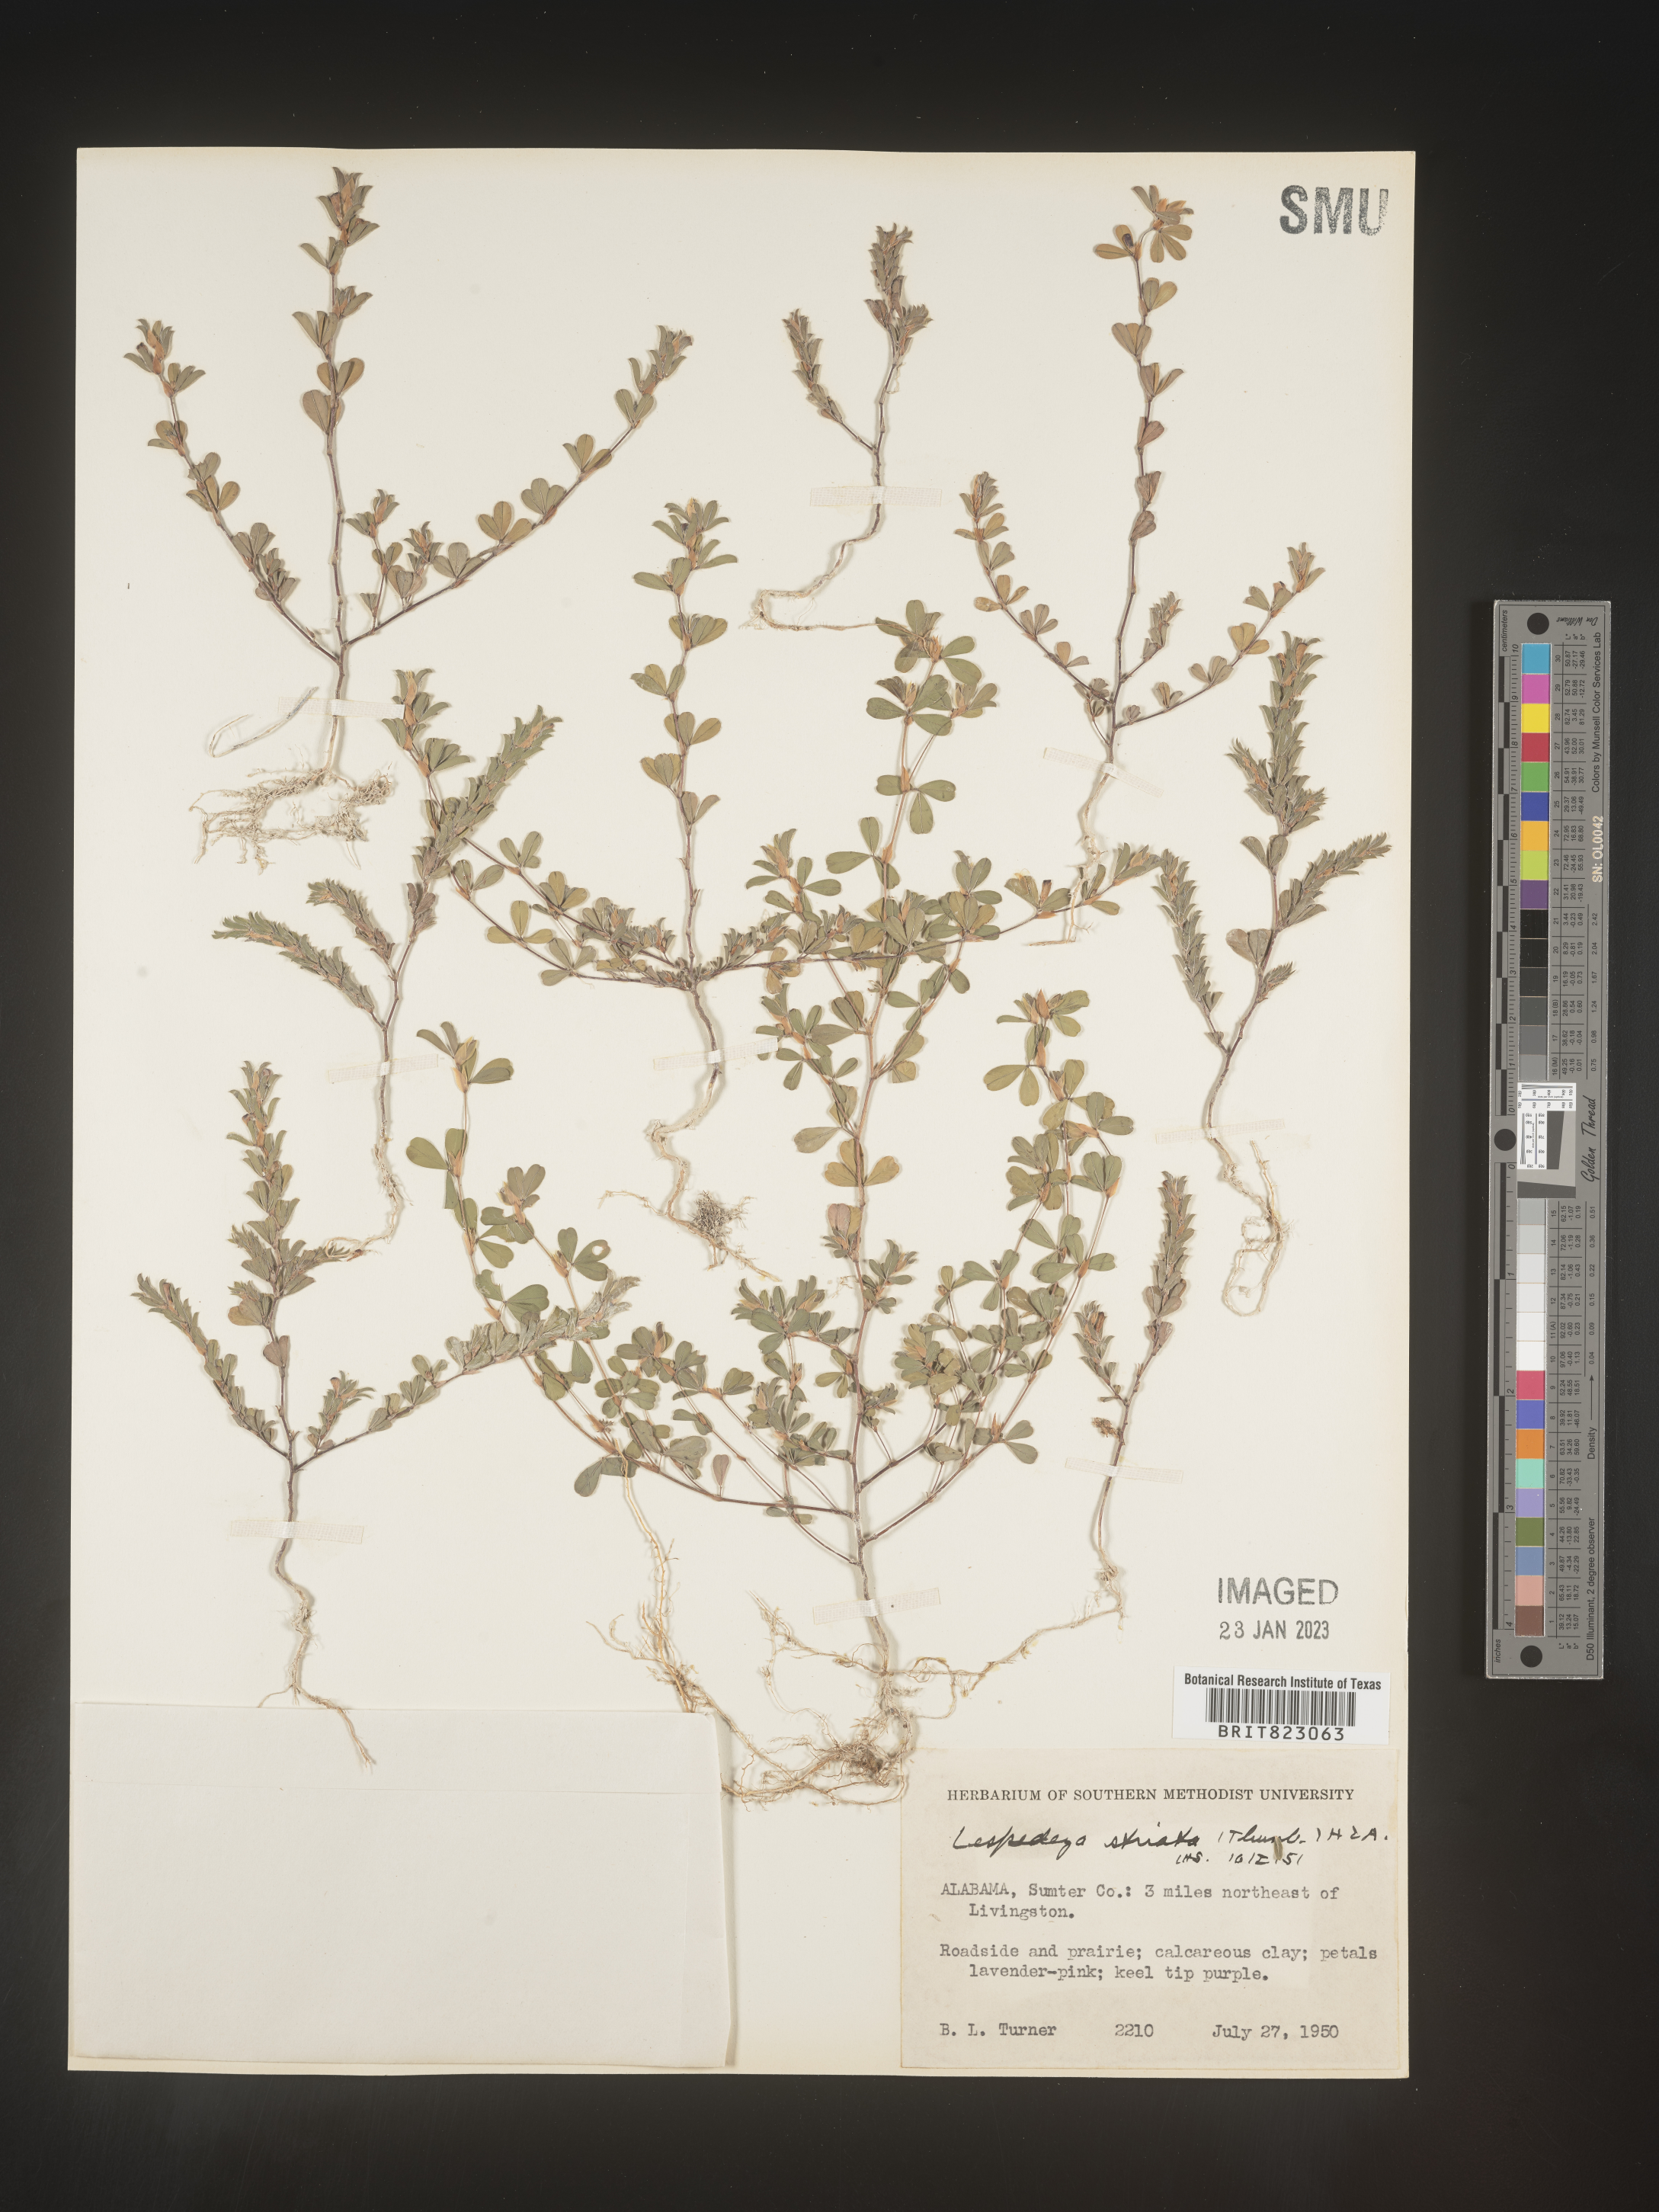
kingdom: Plantae
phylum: Tracheophyta
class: Magnoliopsida
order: Fabales
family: Fabaceae
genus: Kummerowia
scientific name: Kummerowia striata
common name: Japanese clover
